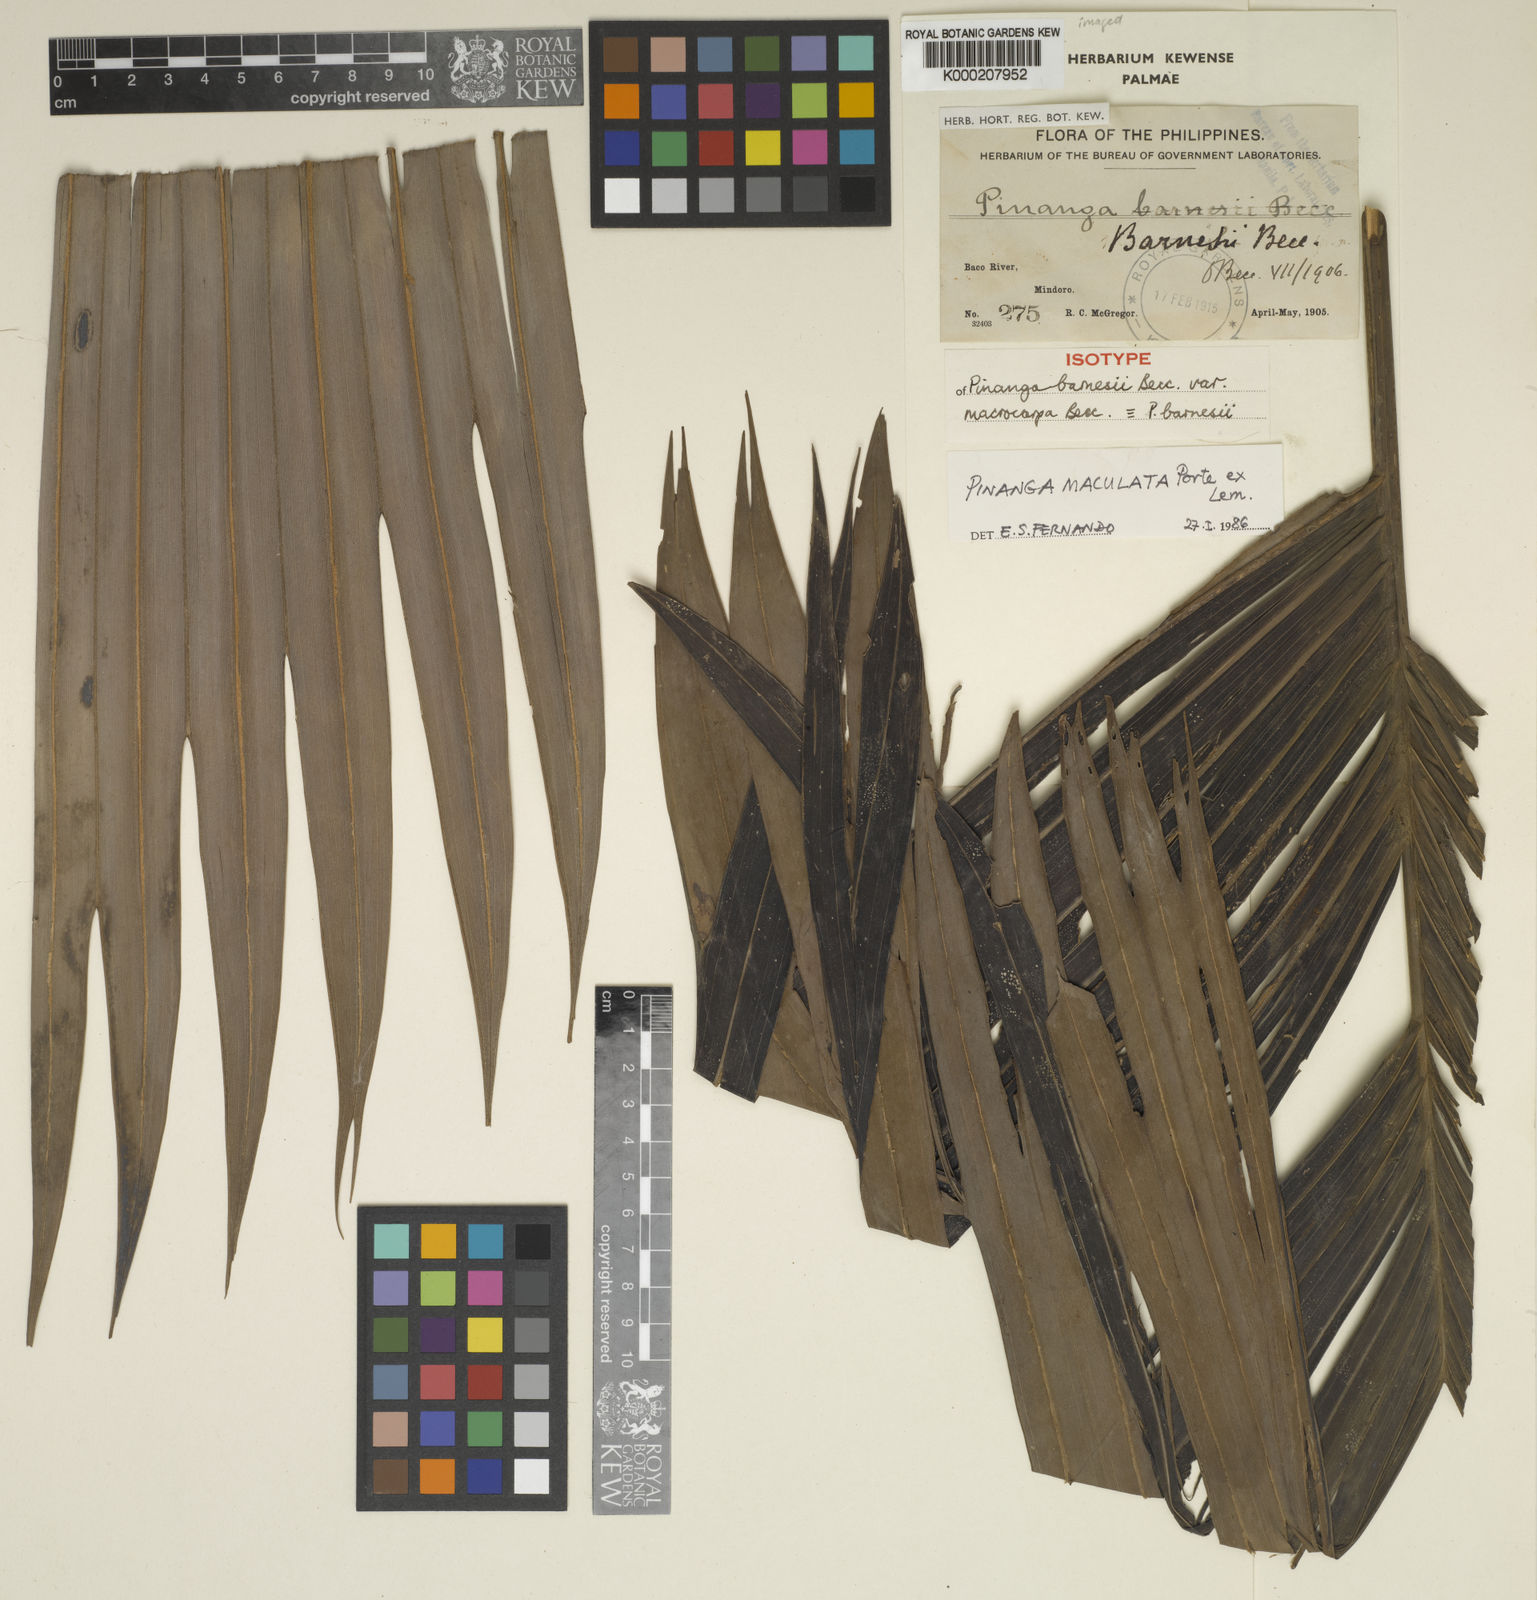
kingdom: Plantae
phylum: Tracheophyta
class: Liliopsida
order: Arecales
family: Arecaceae
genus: Pinanga
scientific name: Pinanga maculata
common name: Tiger palm
